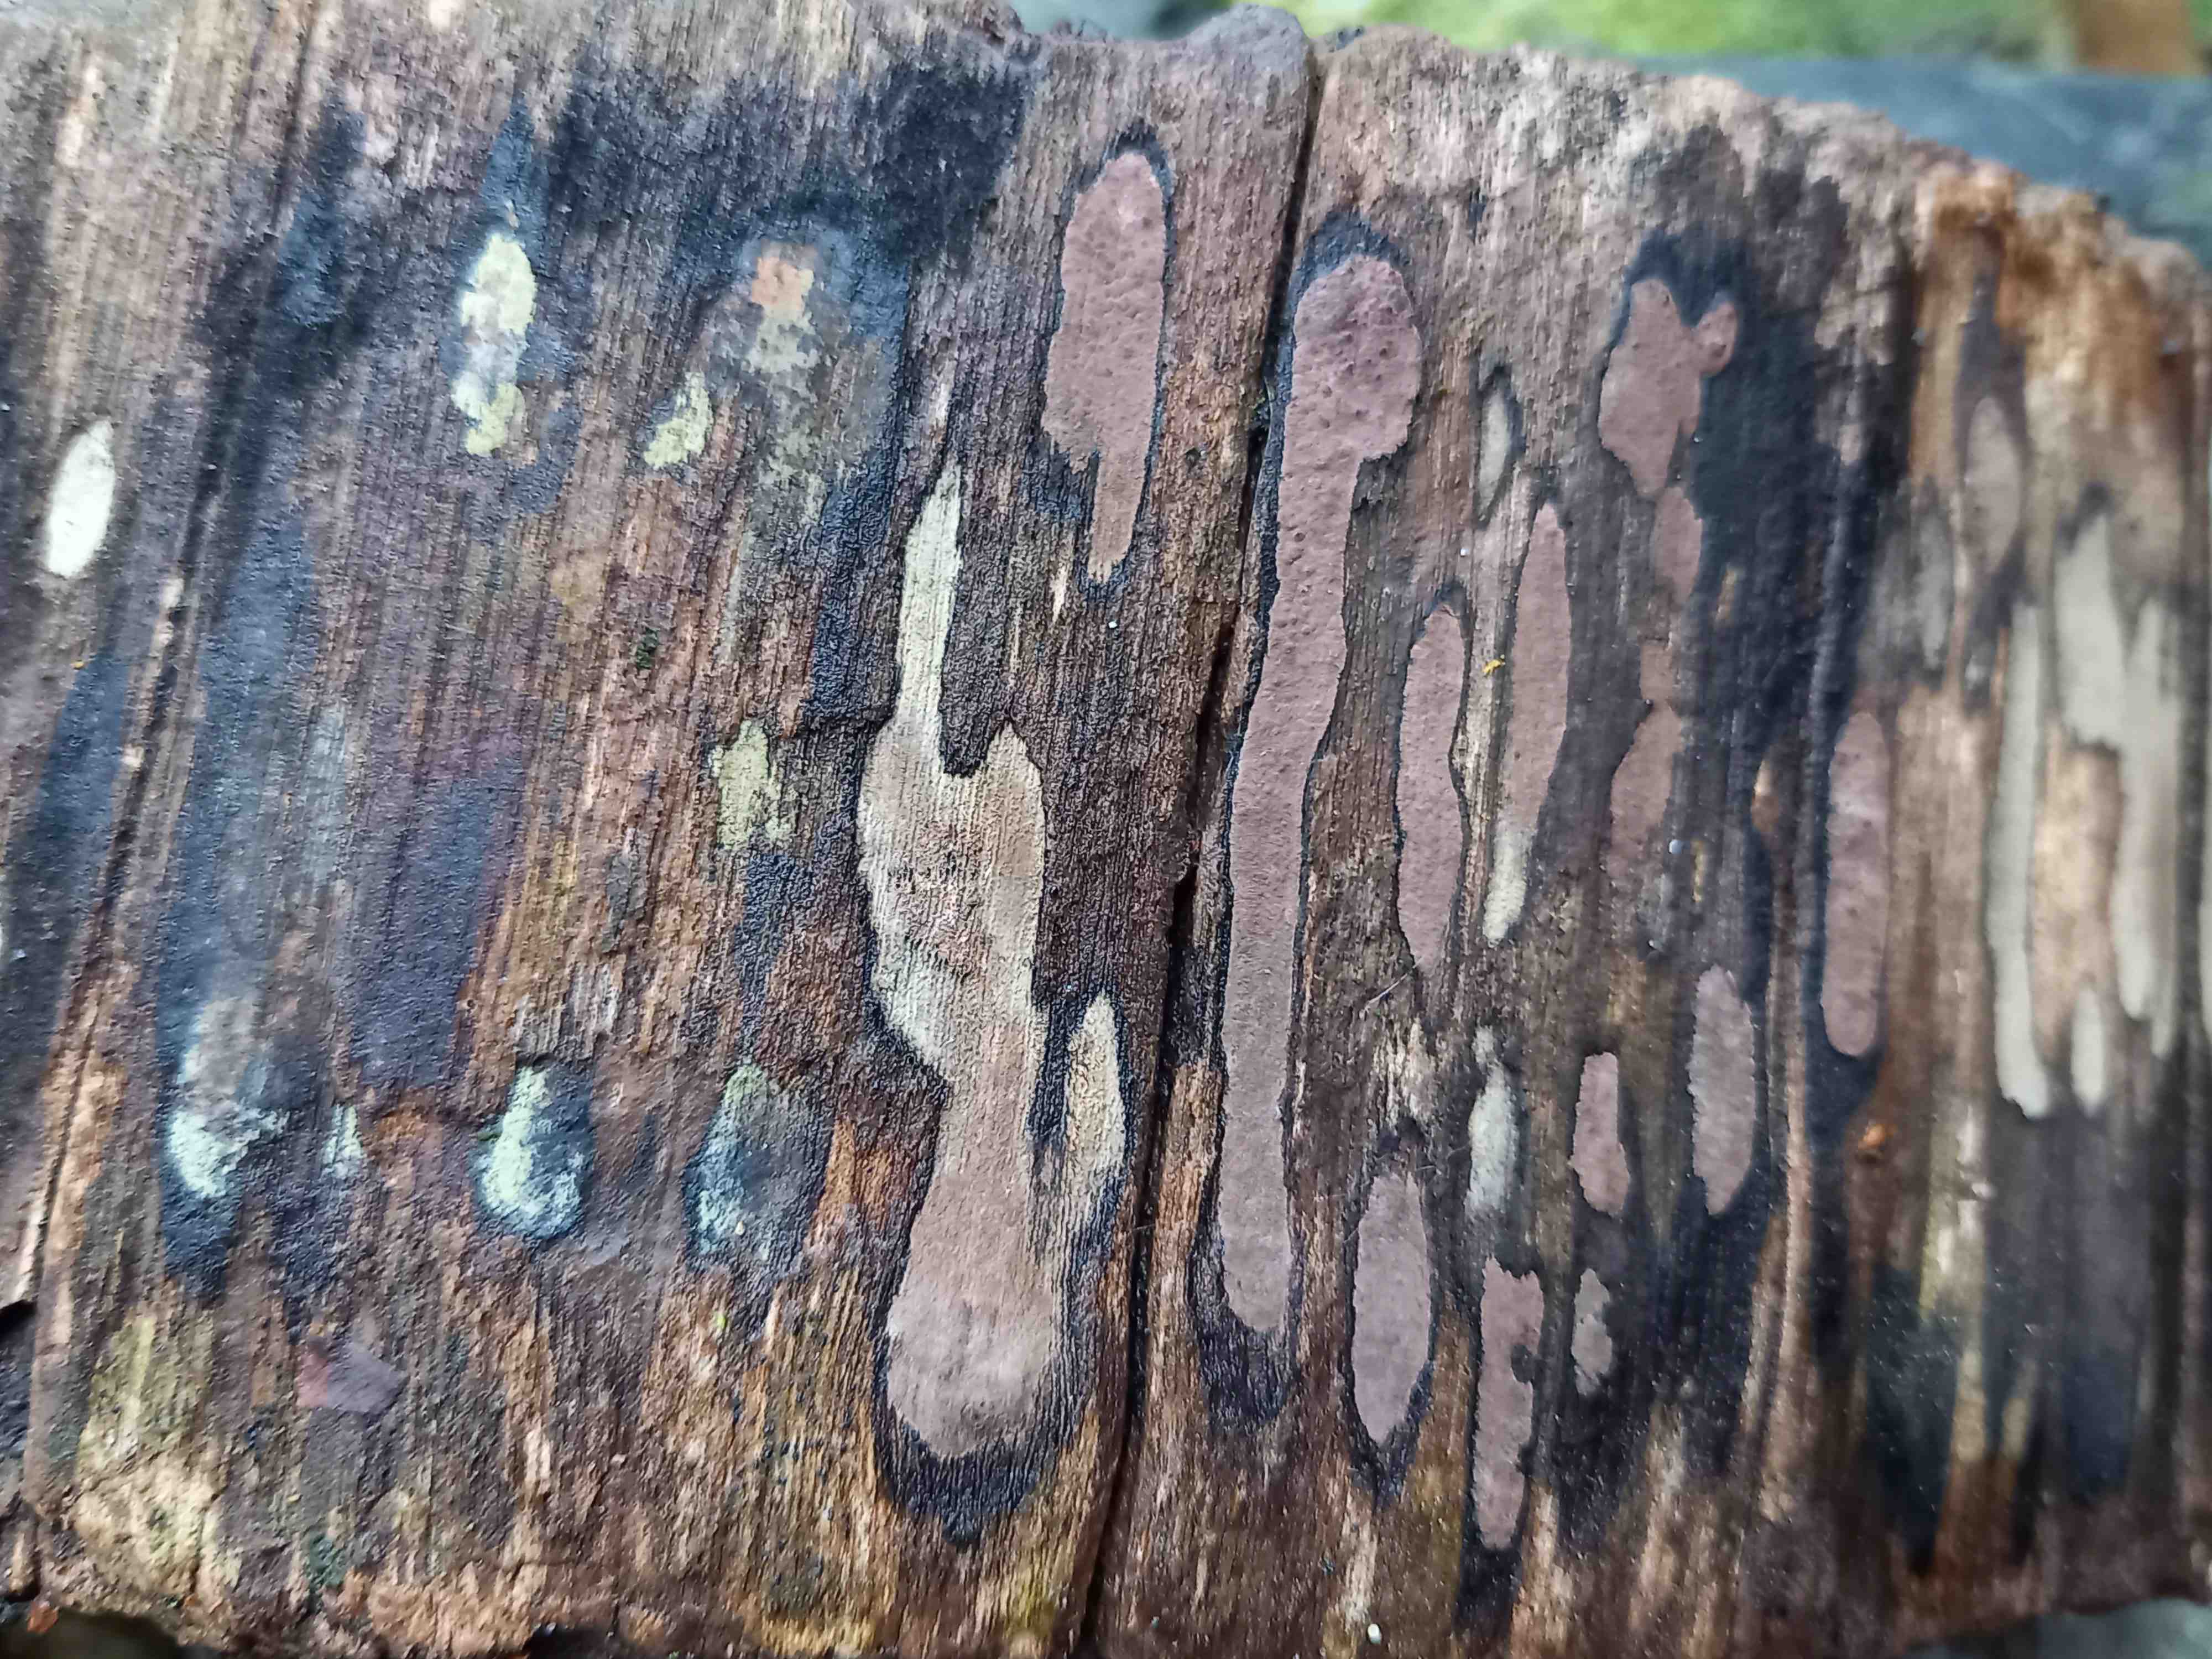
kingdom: Fungi
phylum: Ascomycota
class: Sordariomycetes
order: Xylariales
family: Hypoxylaceae
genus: Hypoxylon
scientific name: Hypoxylon petriniae
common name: nedsænket kulbær
